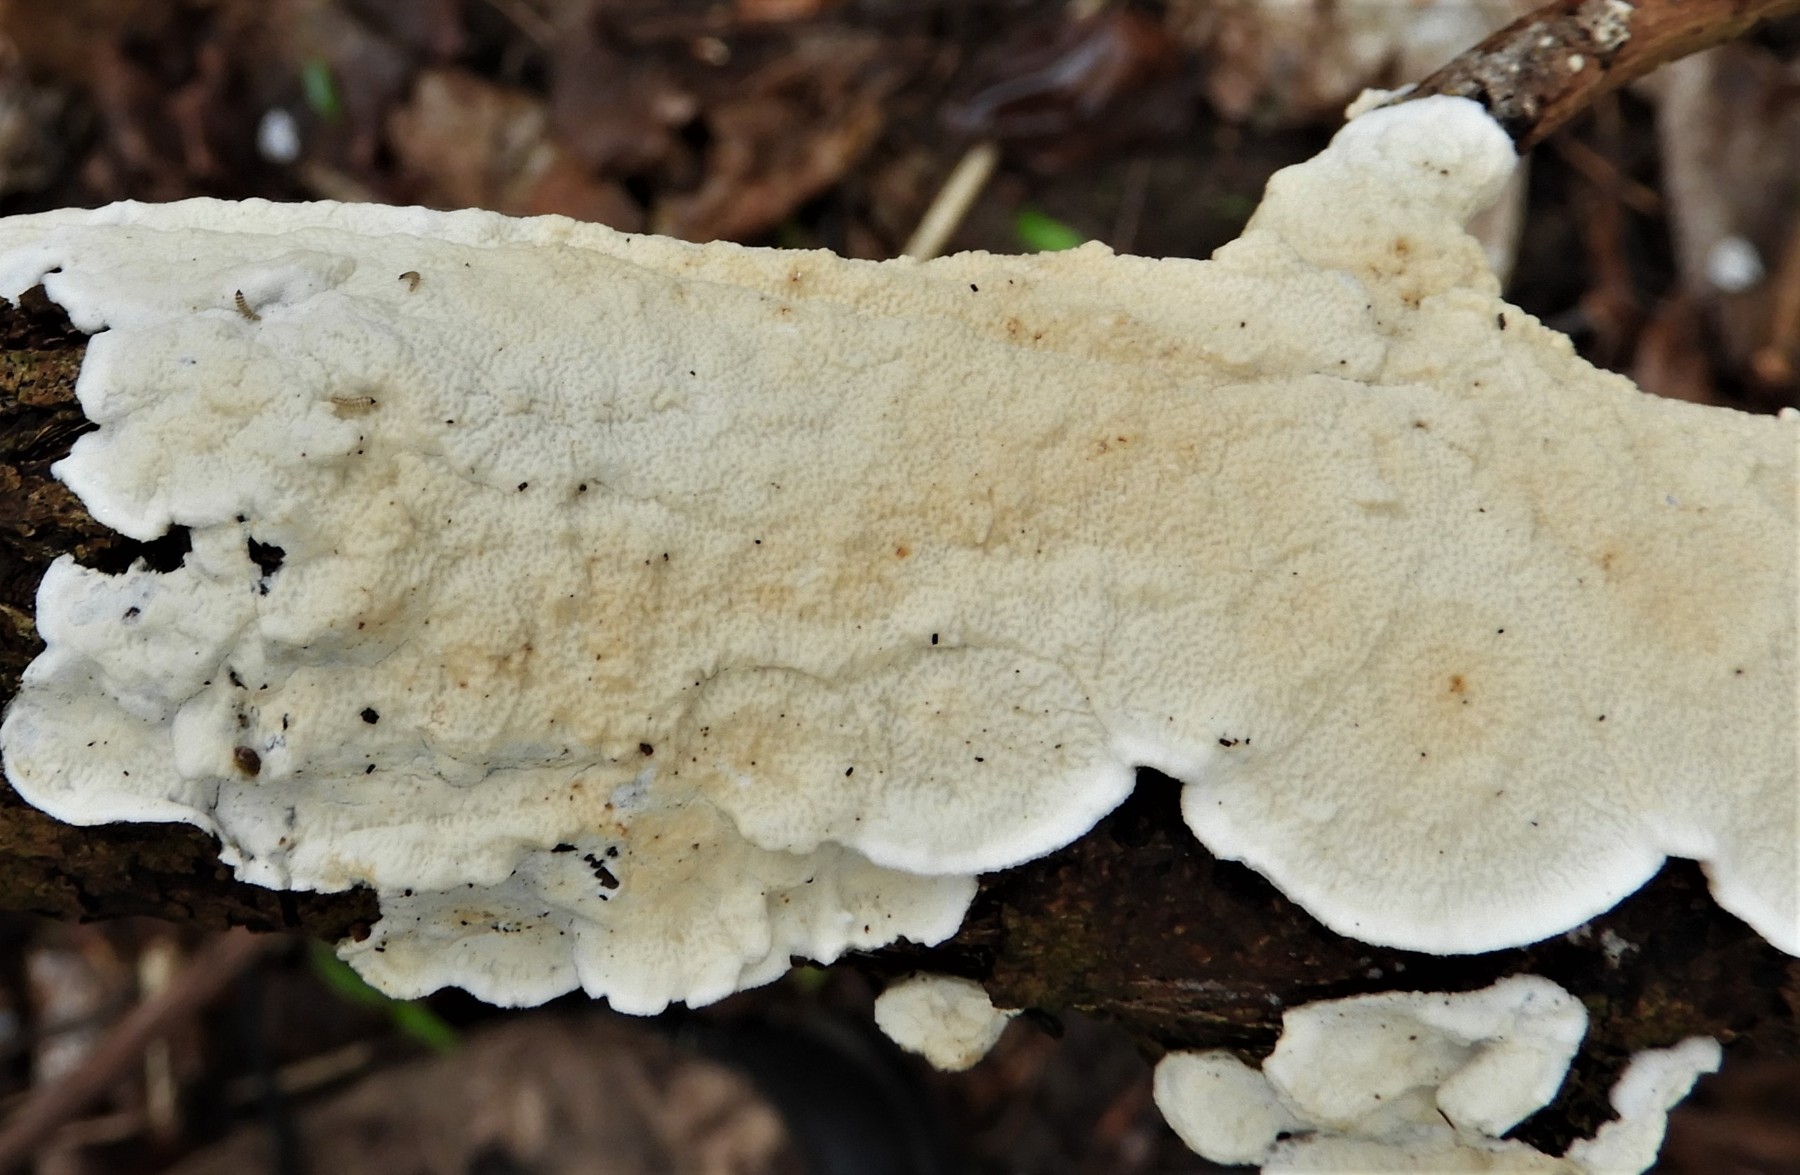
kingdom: Fungi
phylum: Basidiomycota
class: Agaricomycetes
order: Polyporales
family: Irpicaceae
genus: Byssomerulius
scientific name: Byssomerulius corium
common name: læder-åresvamp
